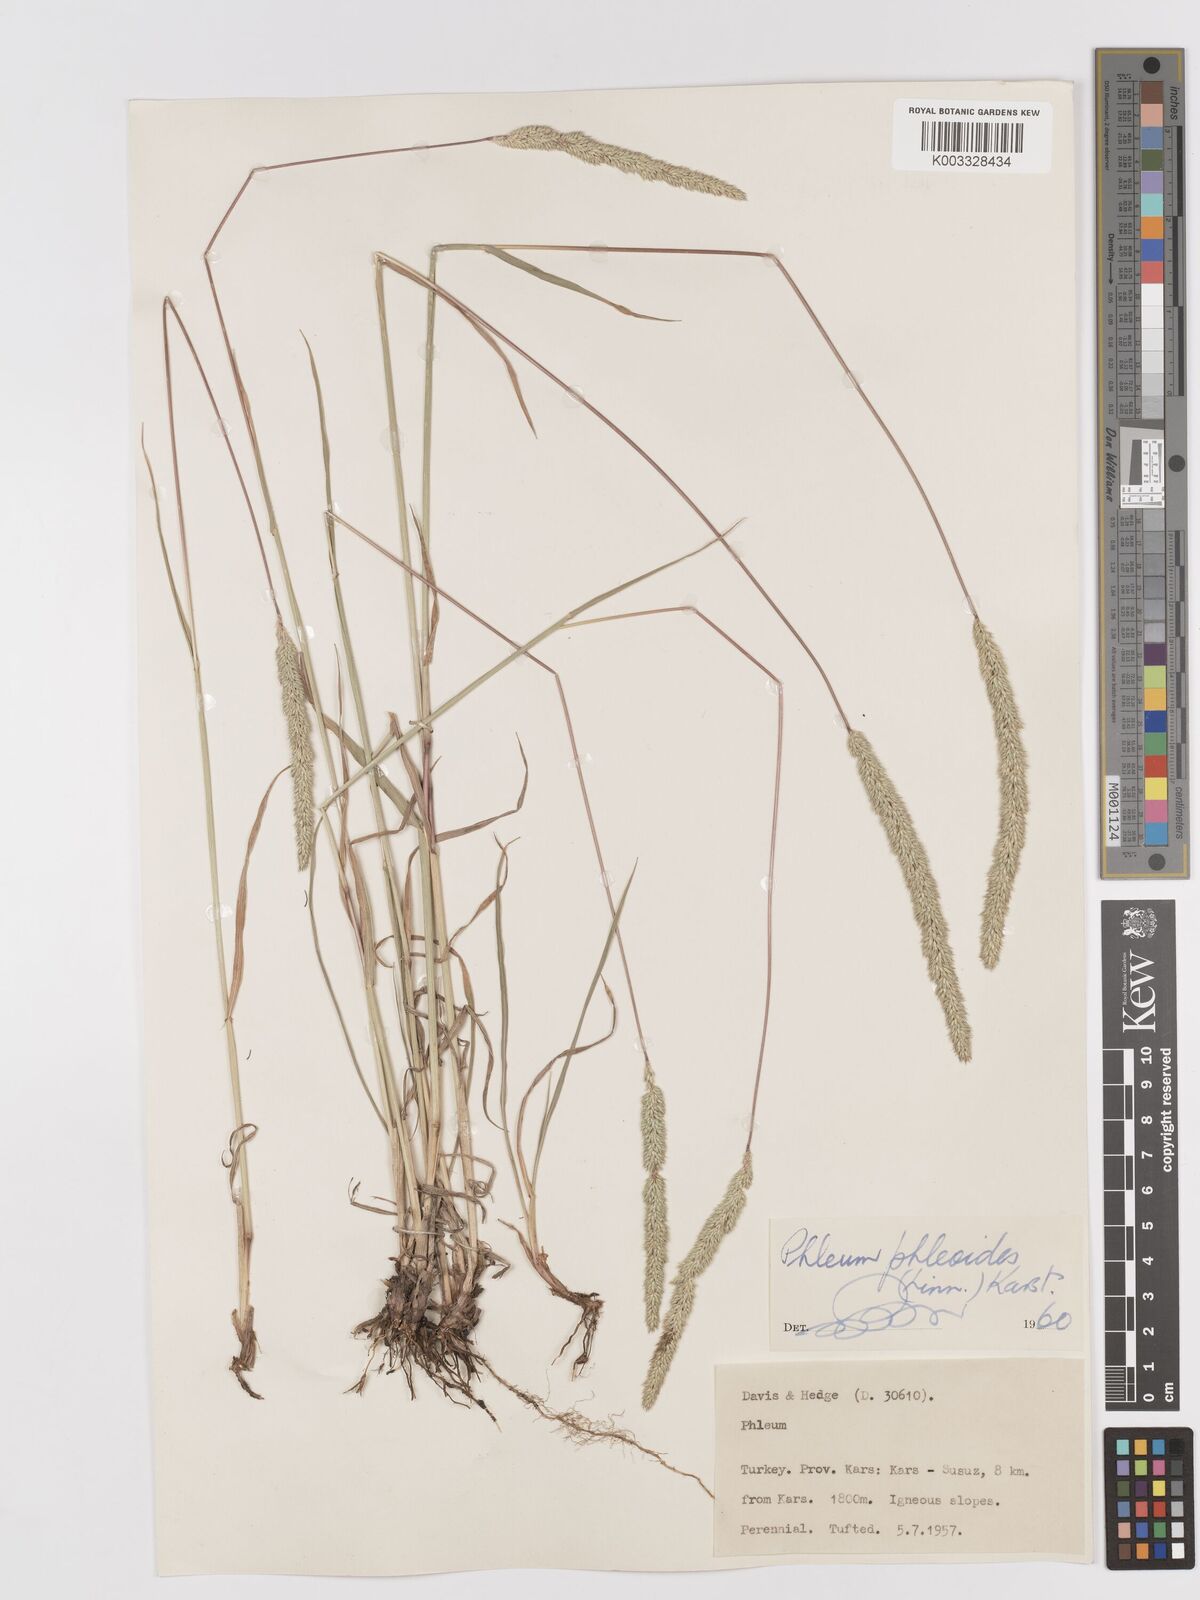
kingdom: Plantae
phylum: Tracheophyta
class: Liliopsida
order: Poales
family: Poaceae
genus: Phleum
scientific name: Phleum phleoides
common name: Purple-stem cat's-tail
